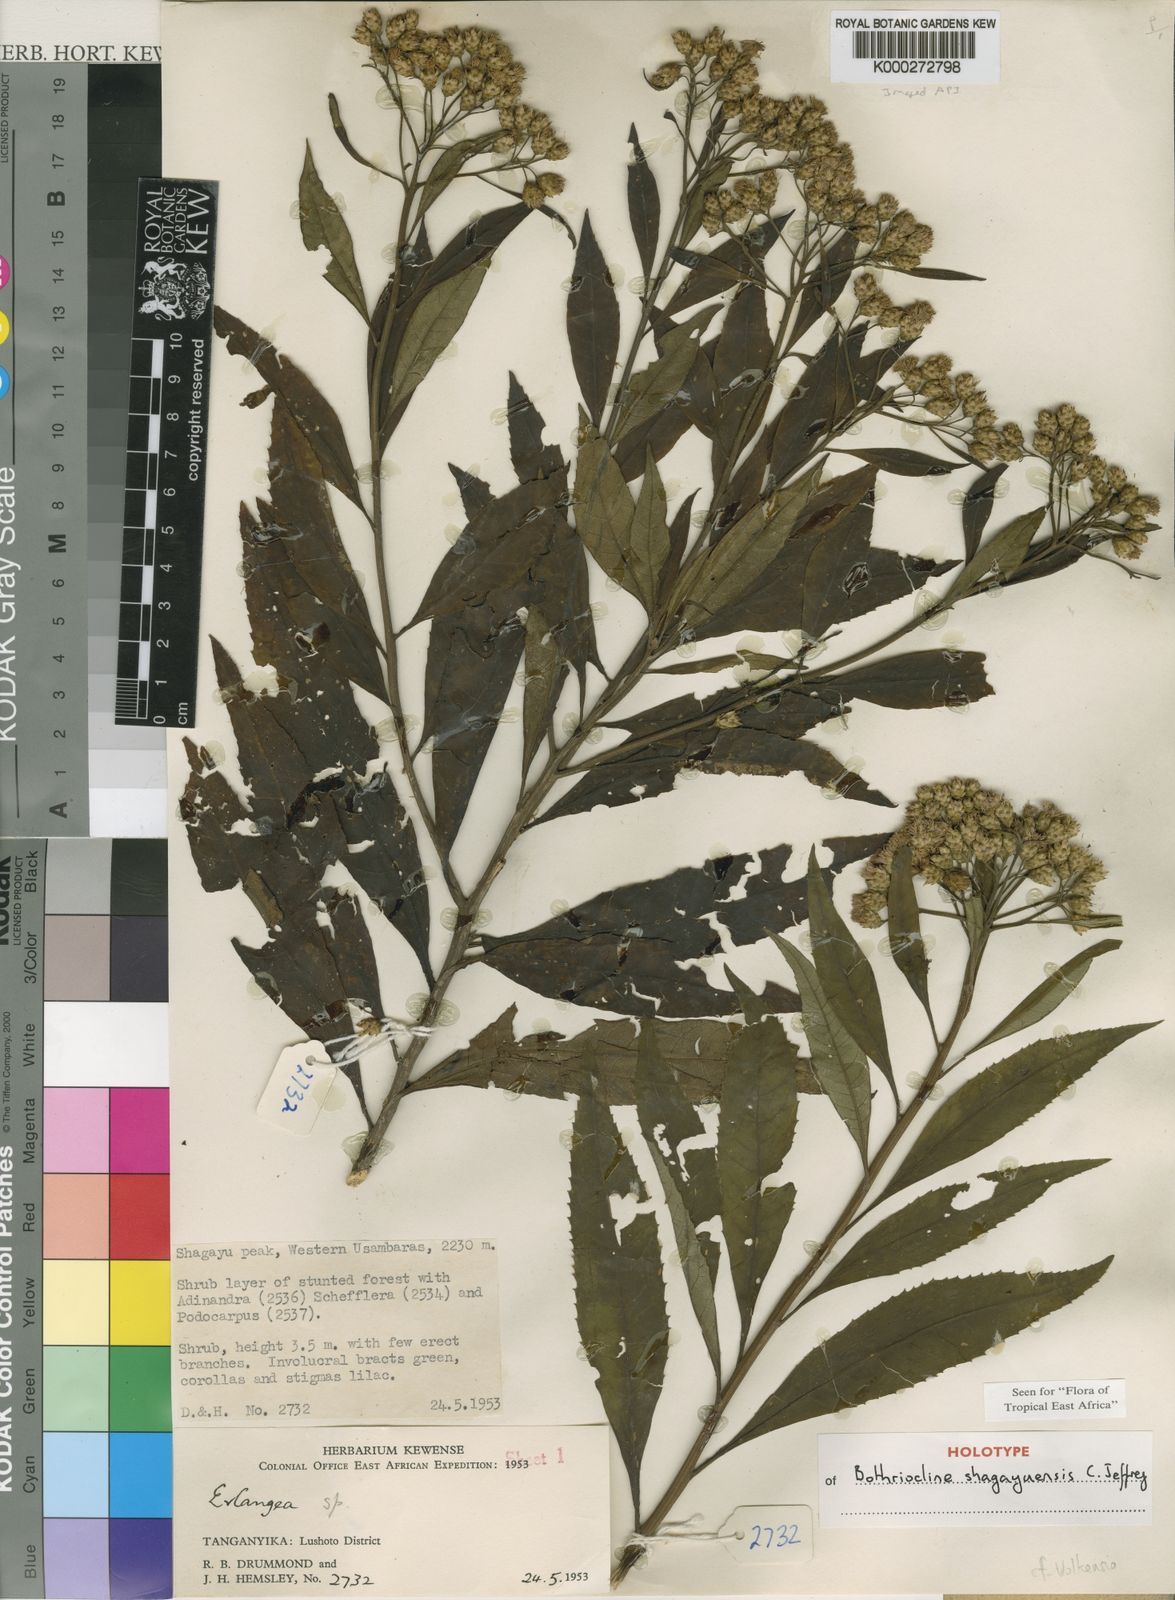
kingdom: Plantae
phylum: Tracheophyta
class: Magnoliopsida
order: Asterales
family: Asteraceae
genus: Bothriocline
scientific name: Bothriocline shagayuensis
